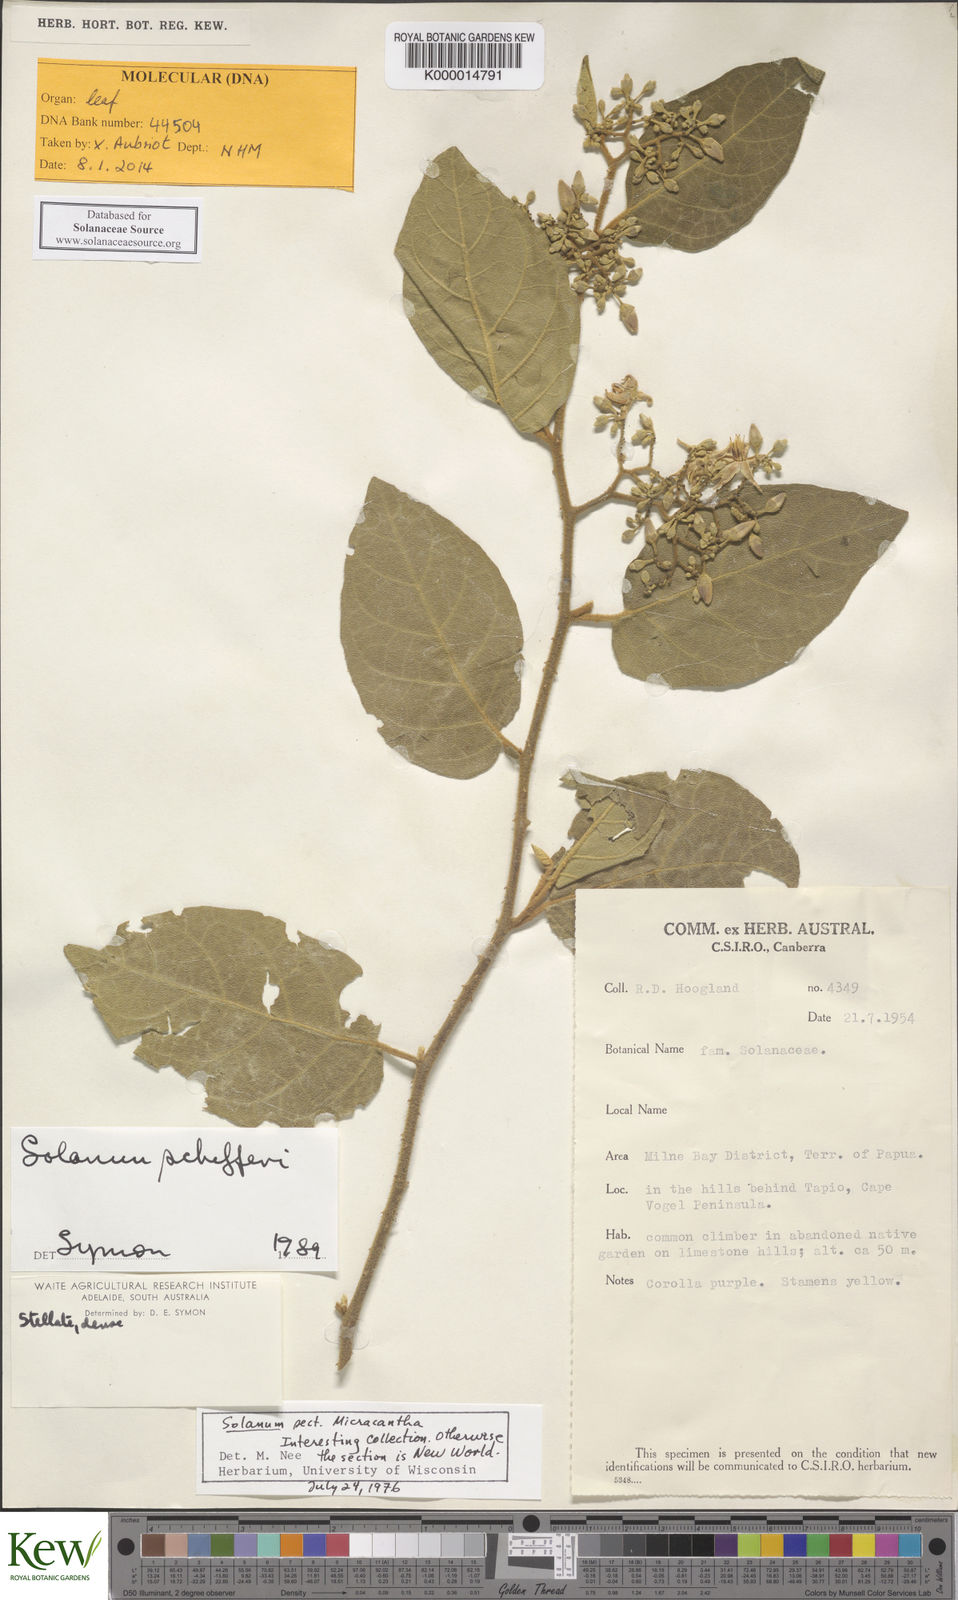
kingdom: Plantae
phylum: Tracheophyta
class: Magnoliopsida
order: Solanales
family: Solanaceae
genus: Solanum
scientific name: Solanum schefferi
